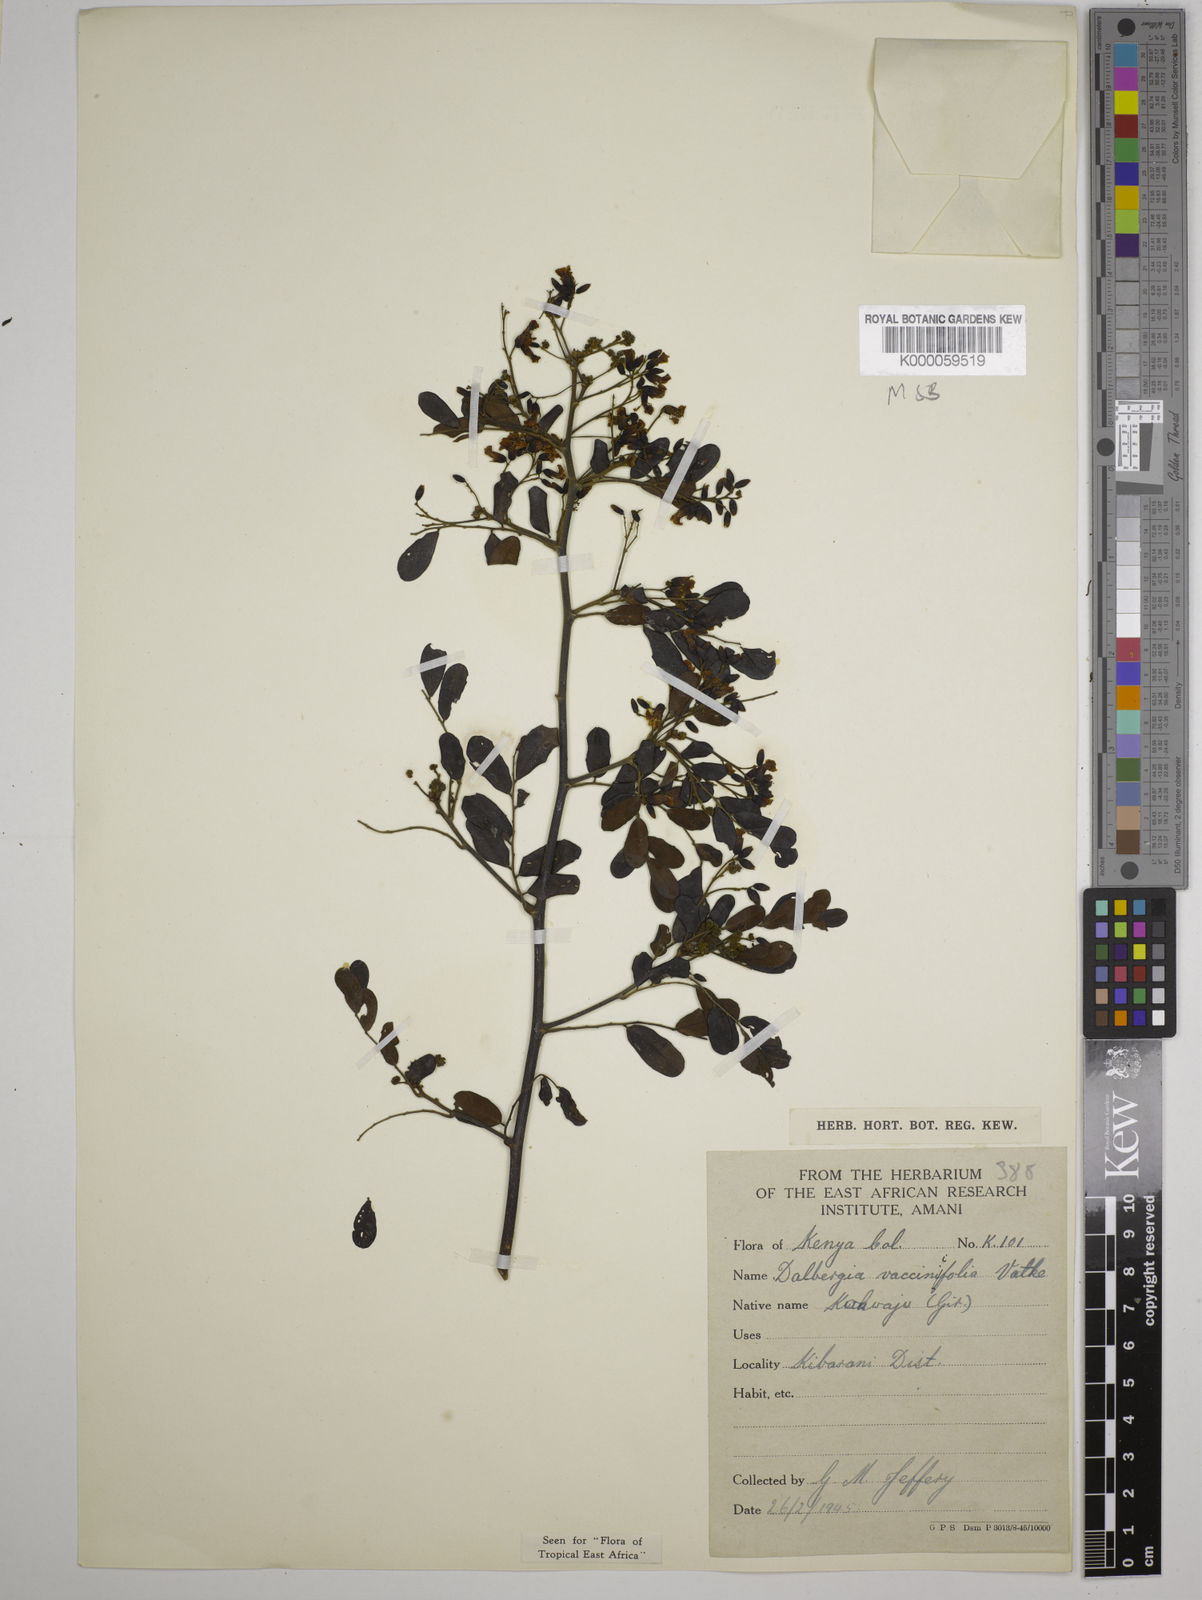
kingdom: Plantae
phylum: Tracheophyta
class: Magnoliopsida
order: Fabales
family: Fabaceae
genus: Dalbergia
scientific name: Dalbergia vacciniifolia
